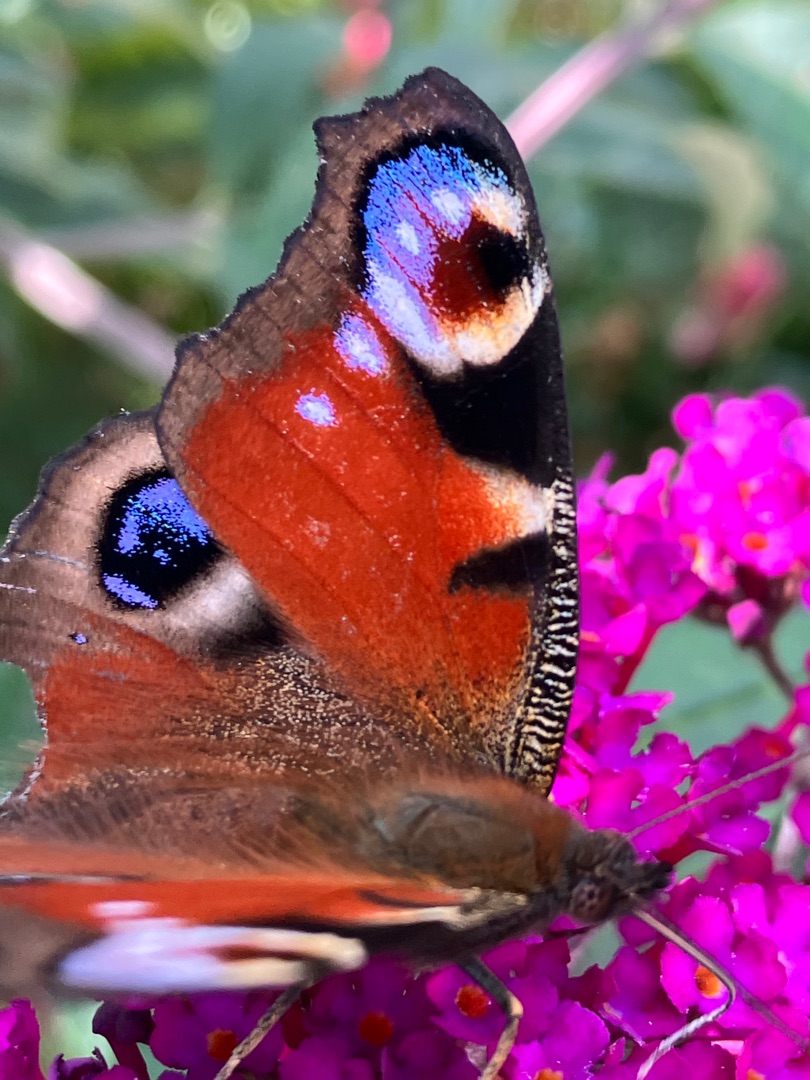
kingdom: Animalia
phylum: Arthropoda
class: Insecta
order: Lepidoptera
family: Nymphalidae
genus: Aglais
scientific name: Aglais io
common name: Dagpåfugleøje
